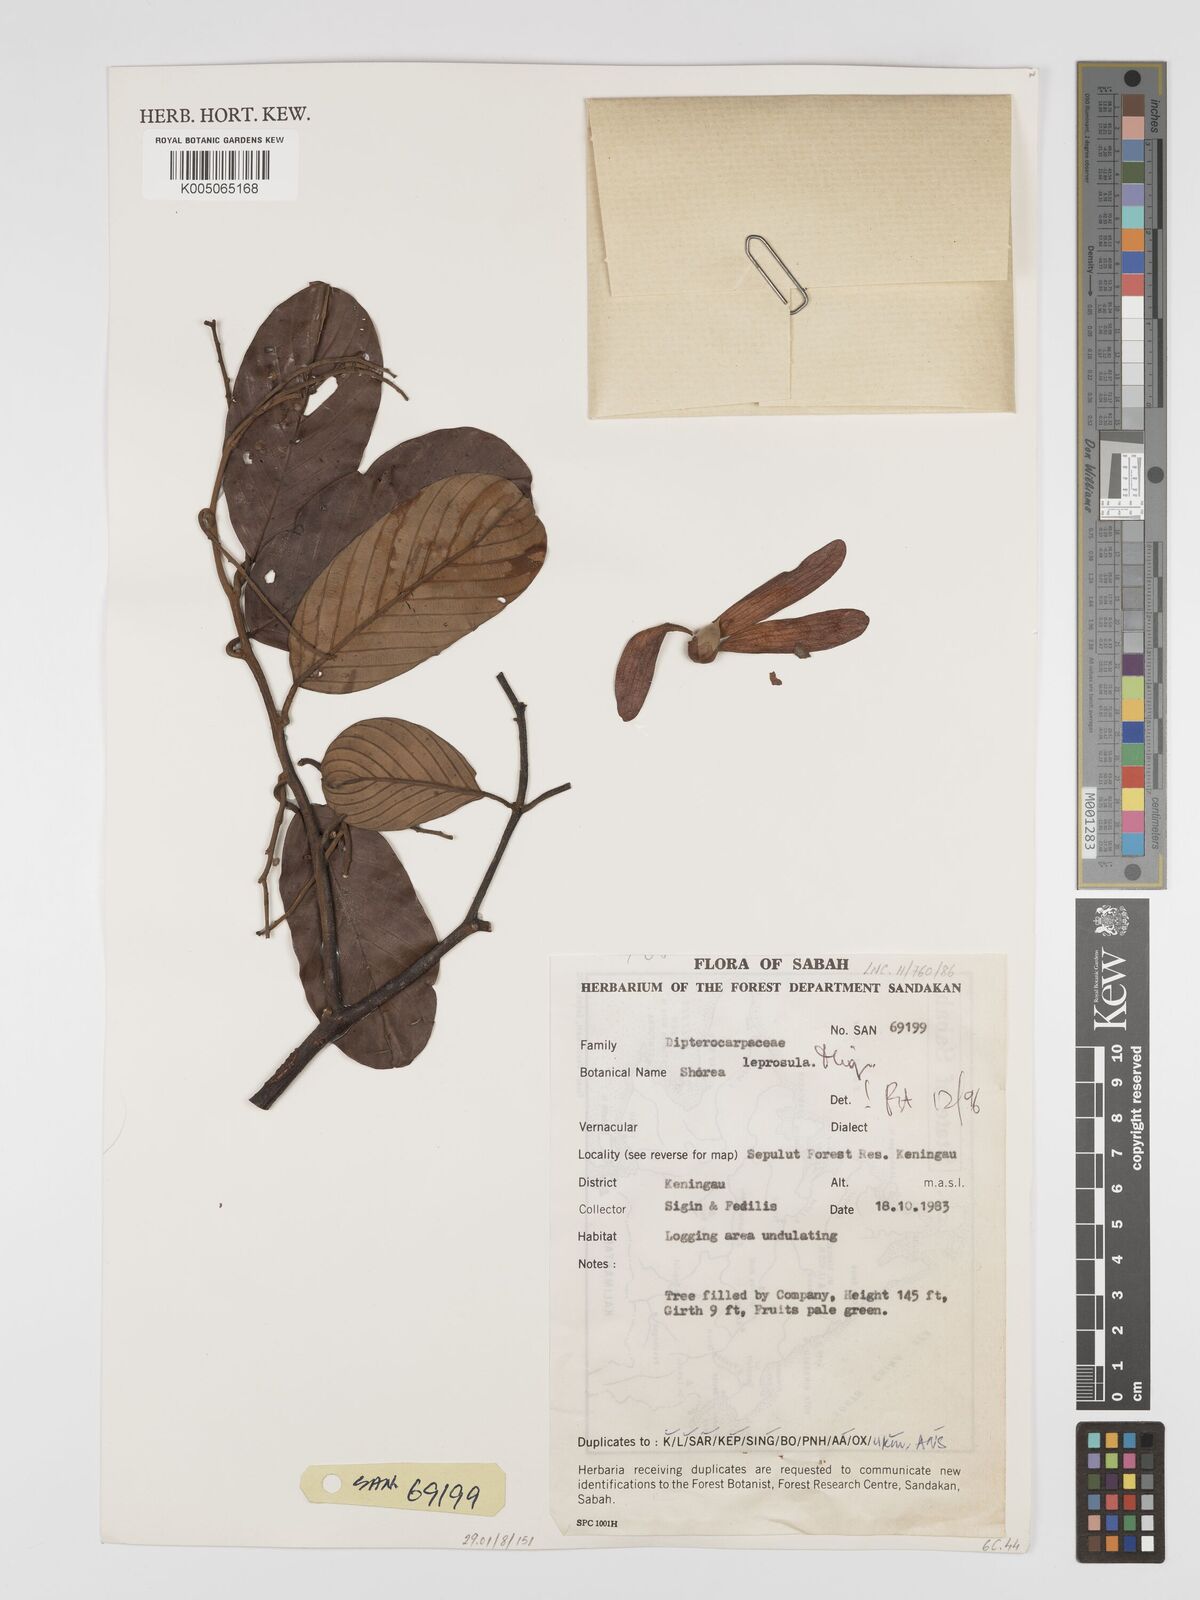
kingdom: Plantae
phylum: Tracheophyta
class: Magnoliopsida
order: Malvales
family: Dipterocarpaceae
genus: Shorea
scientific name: Shorea leprosula
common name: Light red meranti
